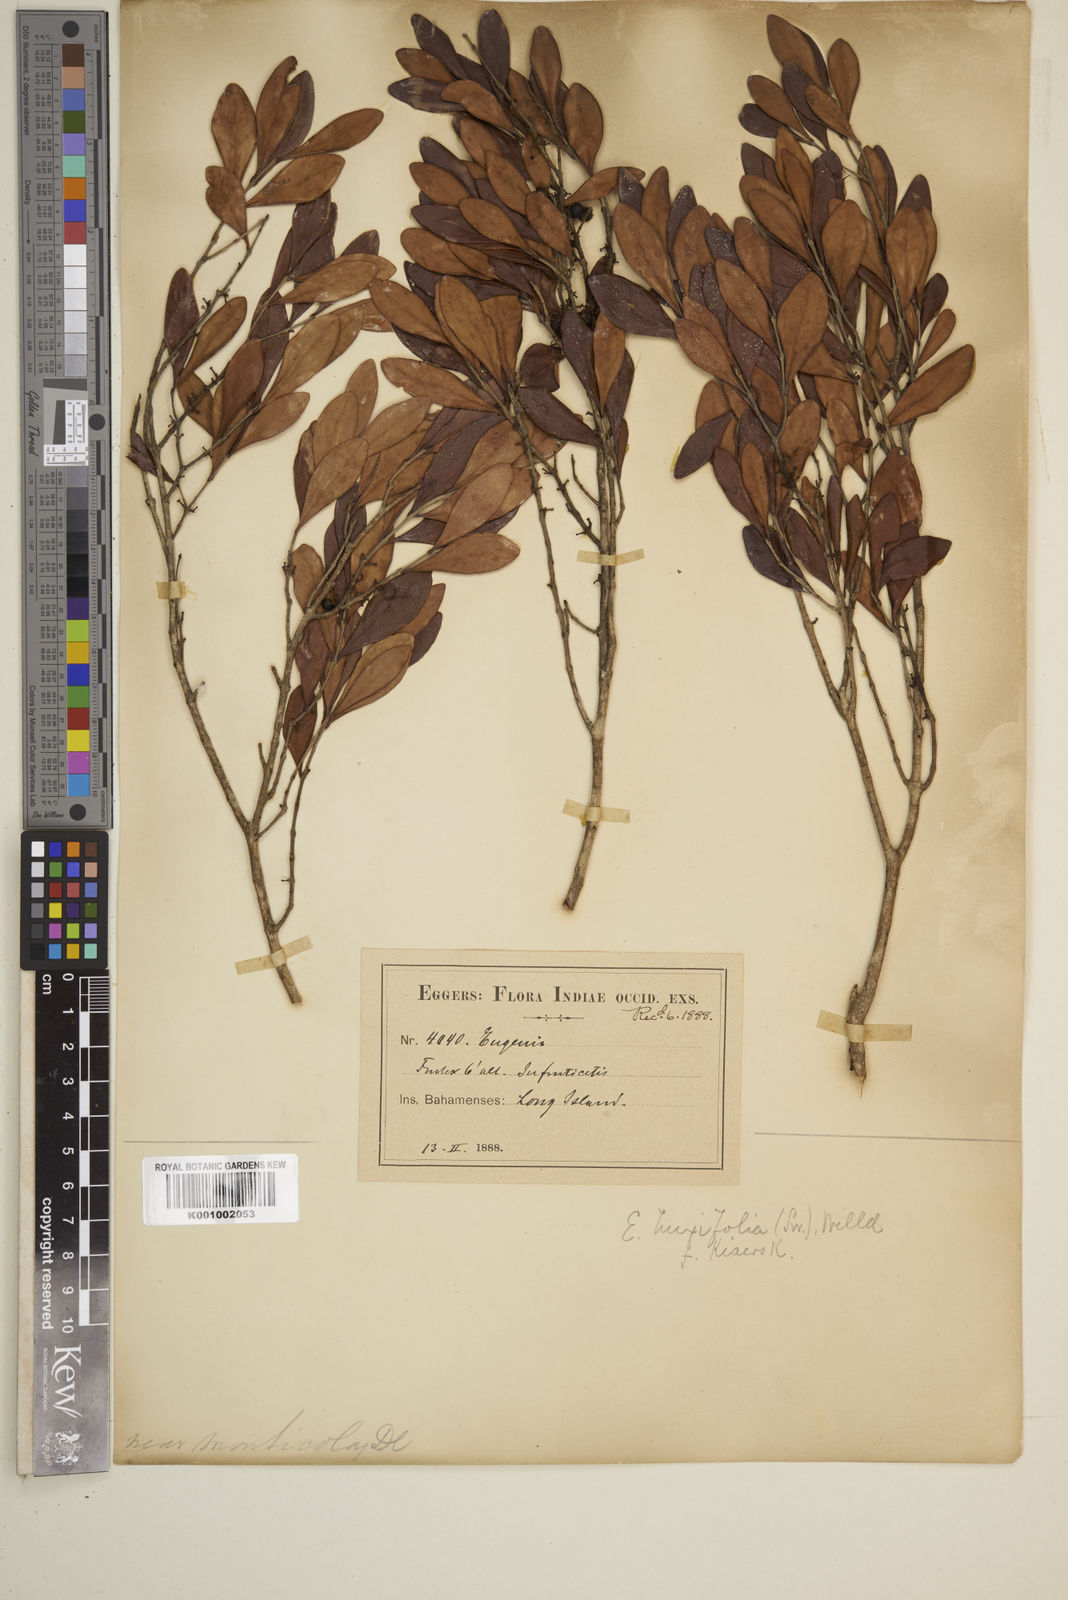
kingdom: Plantae
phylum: Tracheophyta
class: Magnoliopsida
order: Myrtales
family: Myrtaceae
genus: Eugenia
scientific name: Eugenia buxifolia
